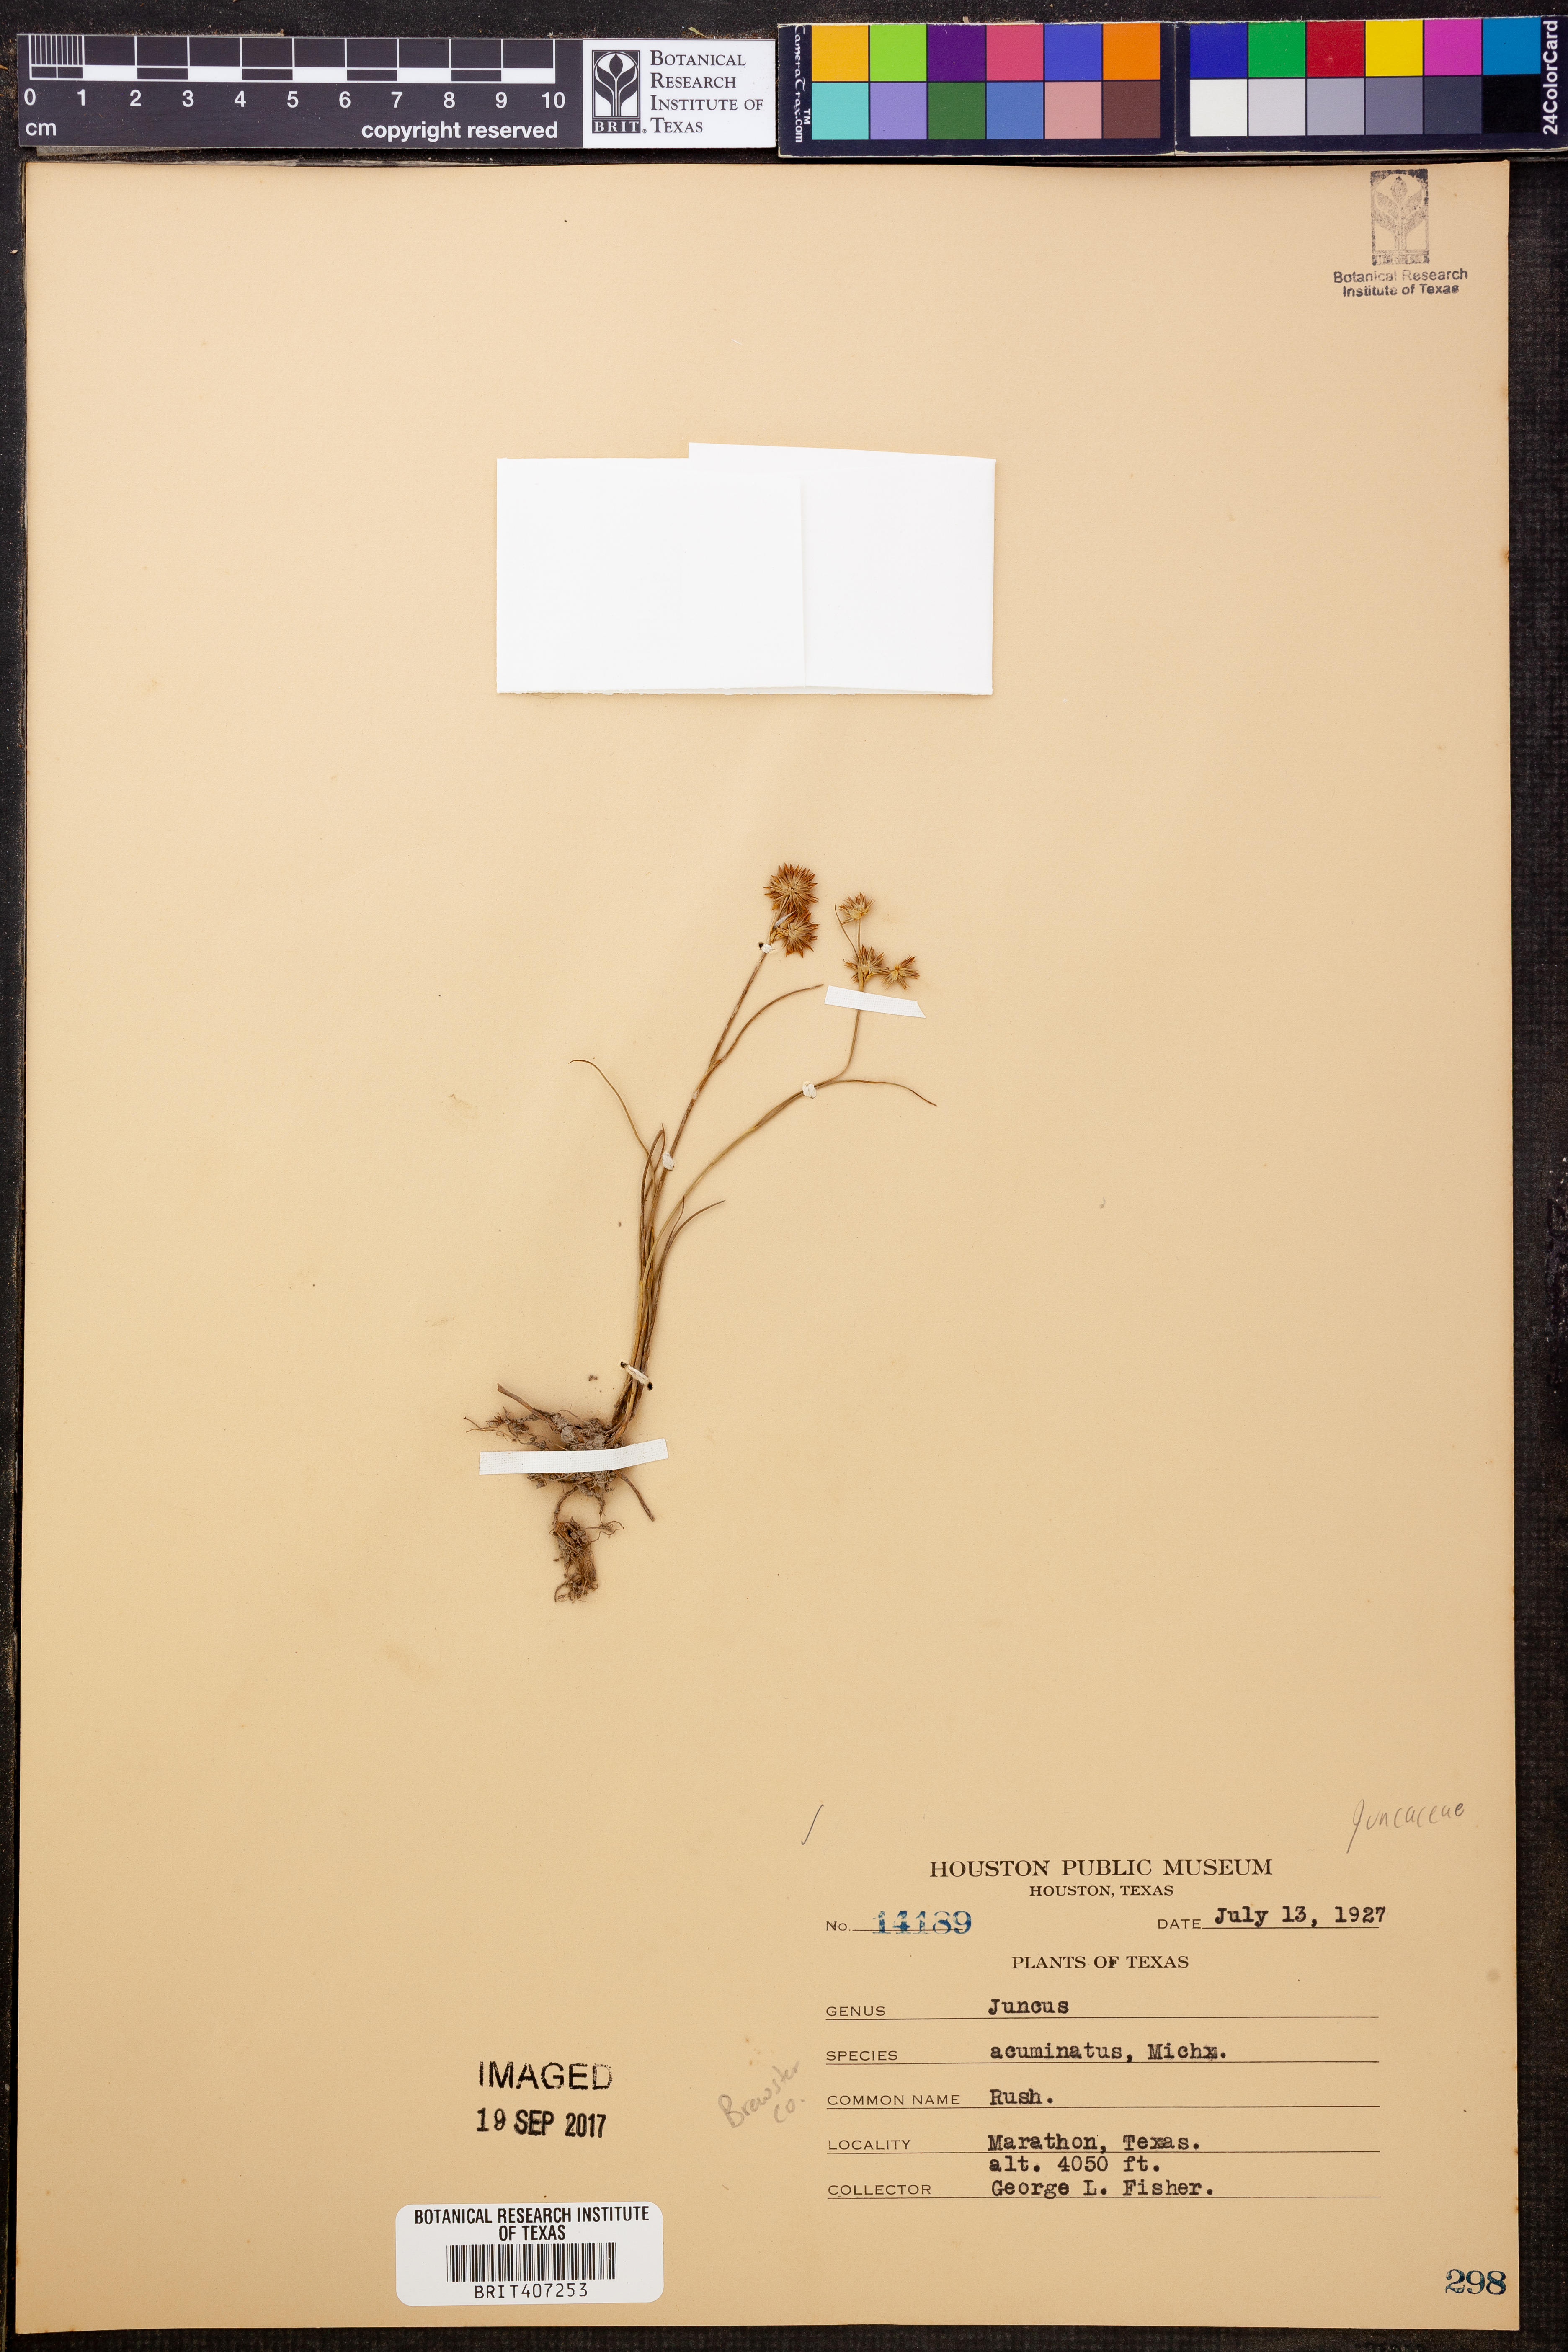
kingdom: Plantae
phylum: Tracheophyta
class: Liliopsida
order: Poales
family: Juncaceae
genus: Juncus
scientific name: Juncus acuminatus
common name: Knotty-leaved rush
